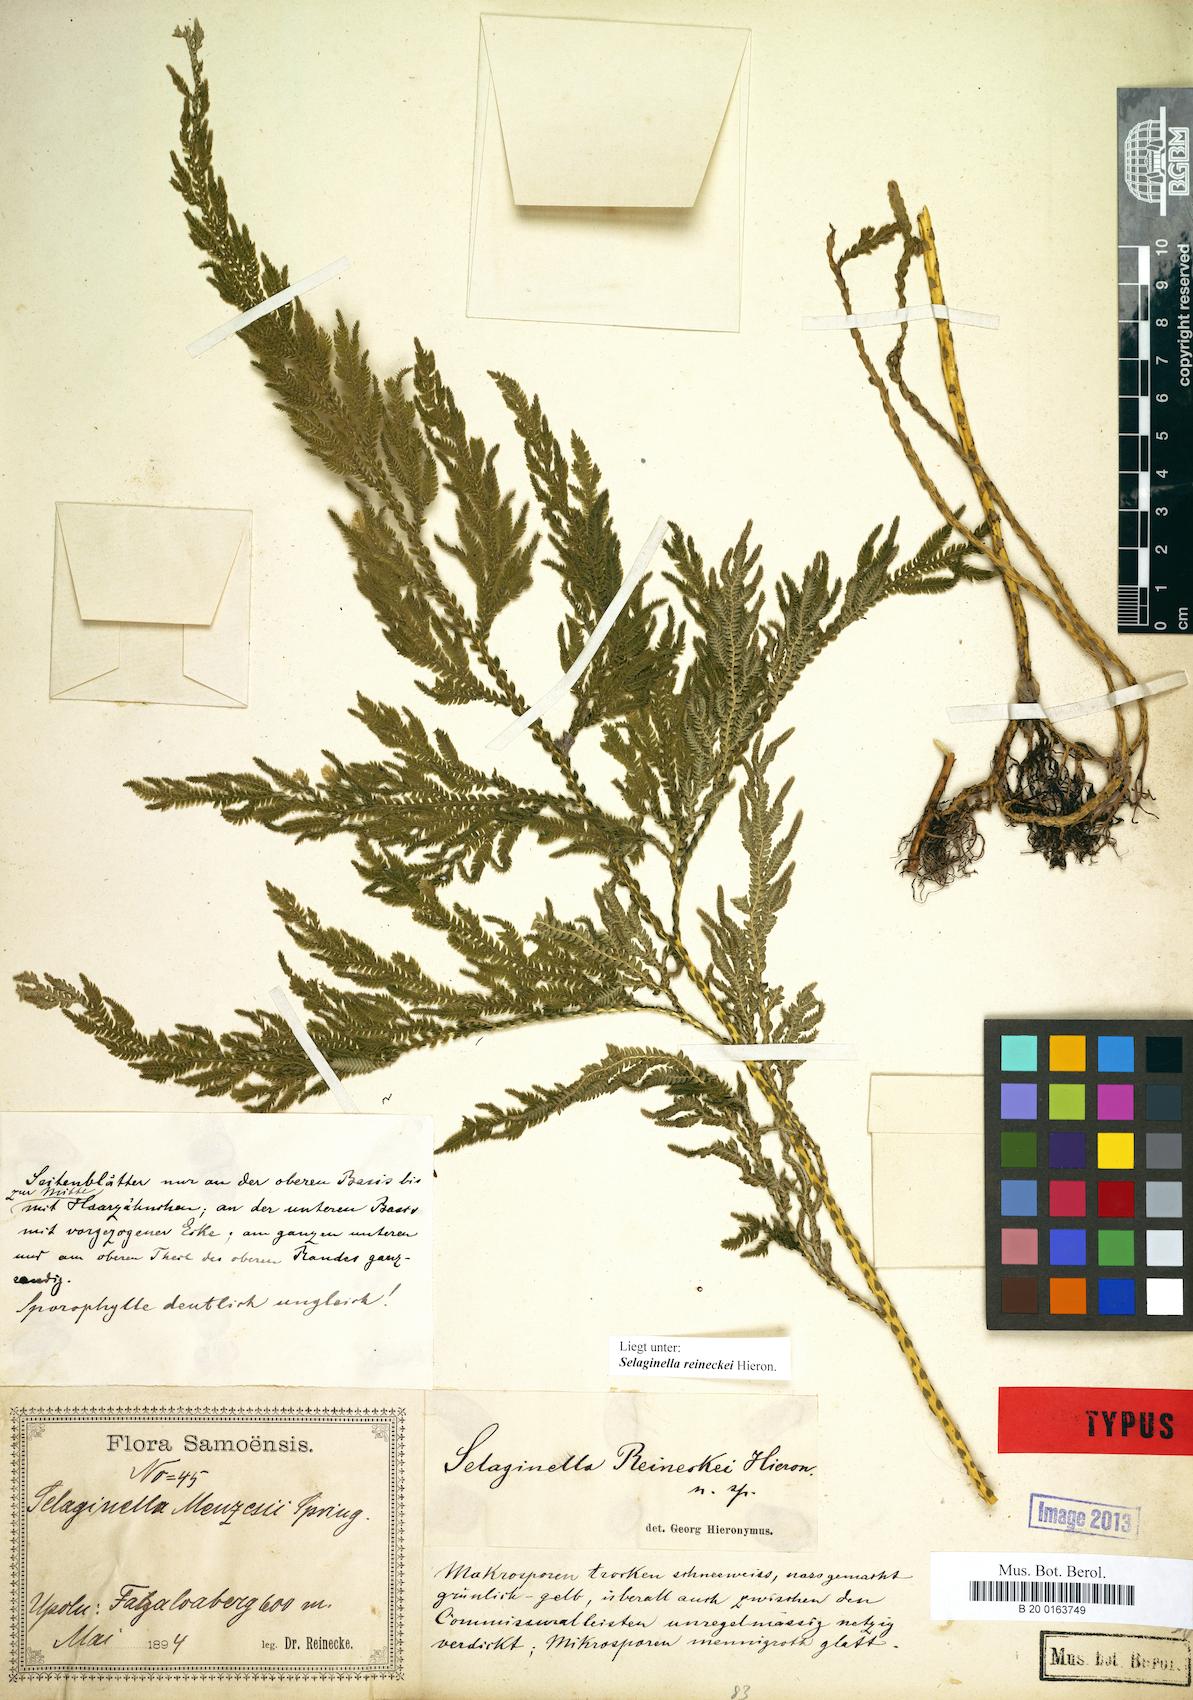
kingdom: Plantae
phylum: Tracheophyta
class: Lycopodiopsida
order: Selaginellales
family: Selaginellaceae
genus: Selaginella
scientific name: Selaginella reineckei
